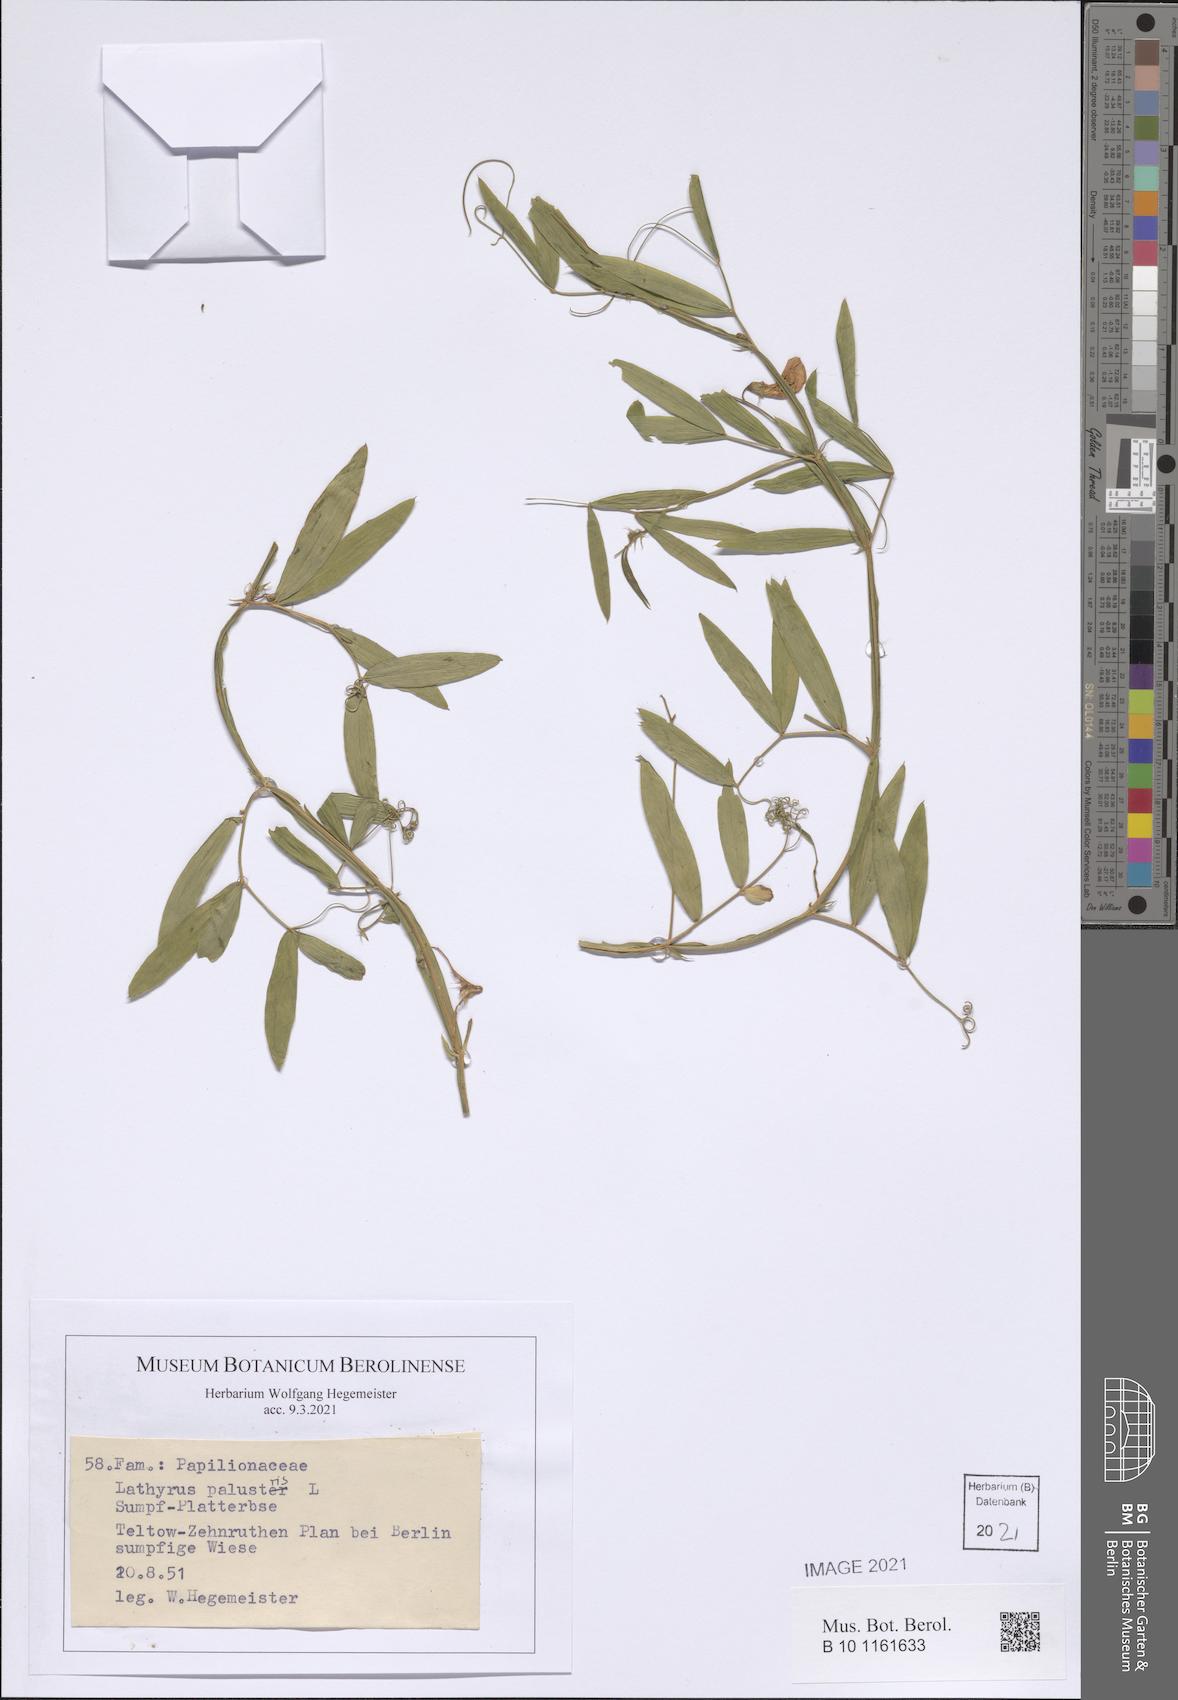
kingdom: Plantae
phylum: Tracheophyta
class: Magnoliopsida
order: Fabales
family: Fabaceae
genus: Lathyrus
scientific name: Lathyrus palustris
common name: Marsh pea
